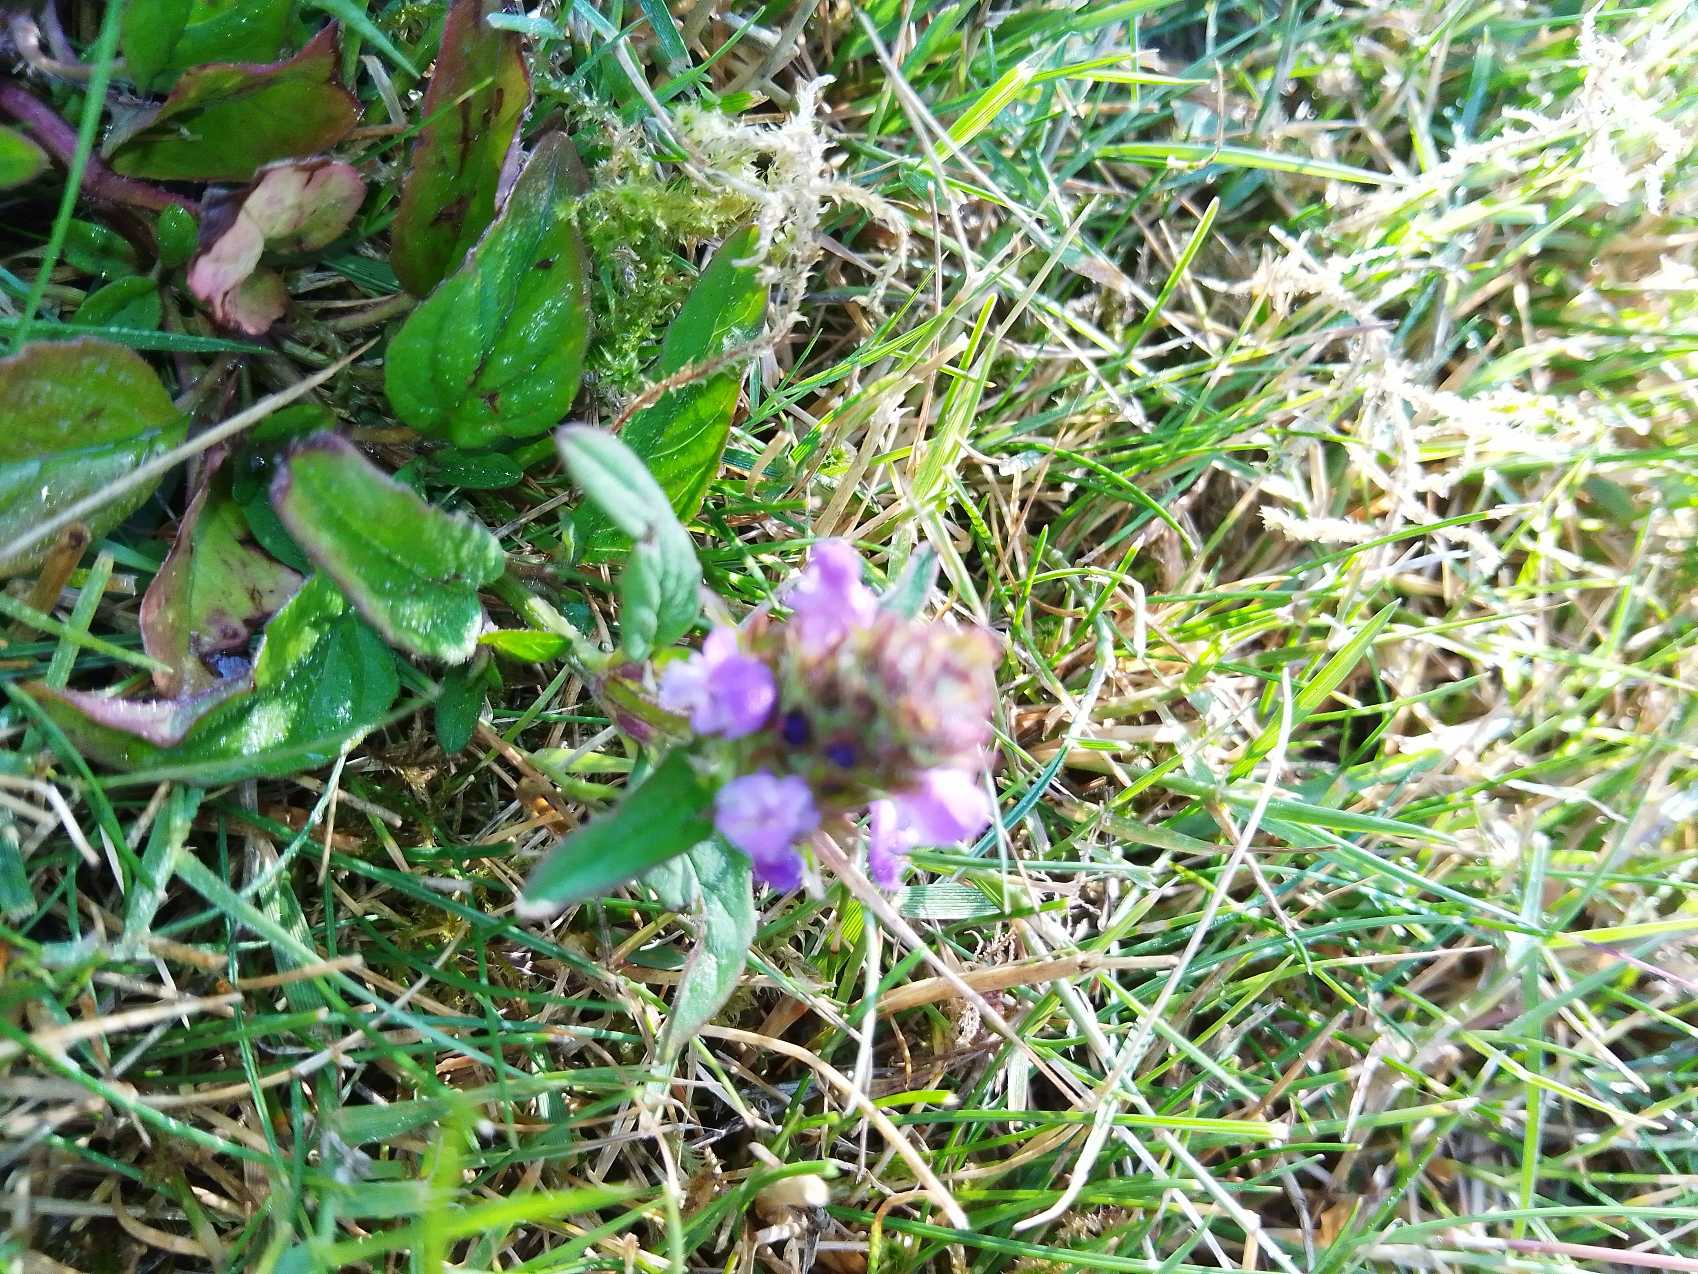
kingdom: Plantae
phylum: Tracheophyta
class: Magnoliopsida
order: Lamiales
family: Lamiaceae
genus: Prunella
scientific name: Prunella vulgaris
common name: Almindelig brunelle
